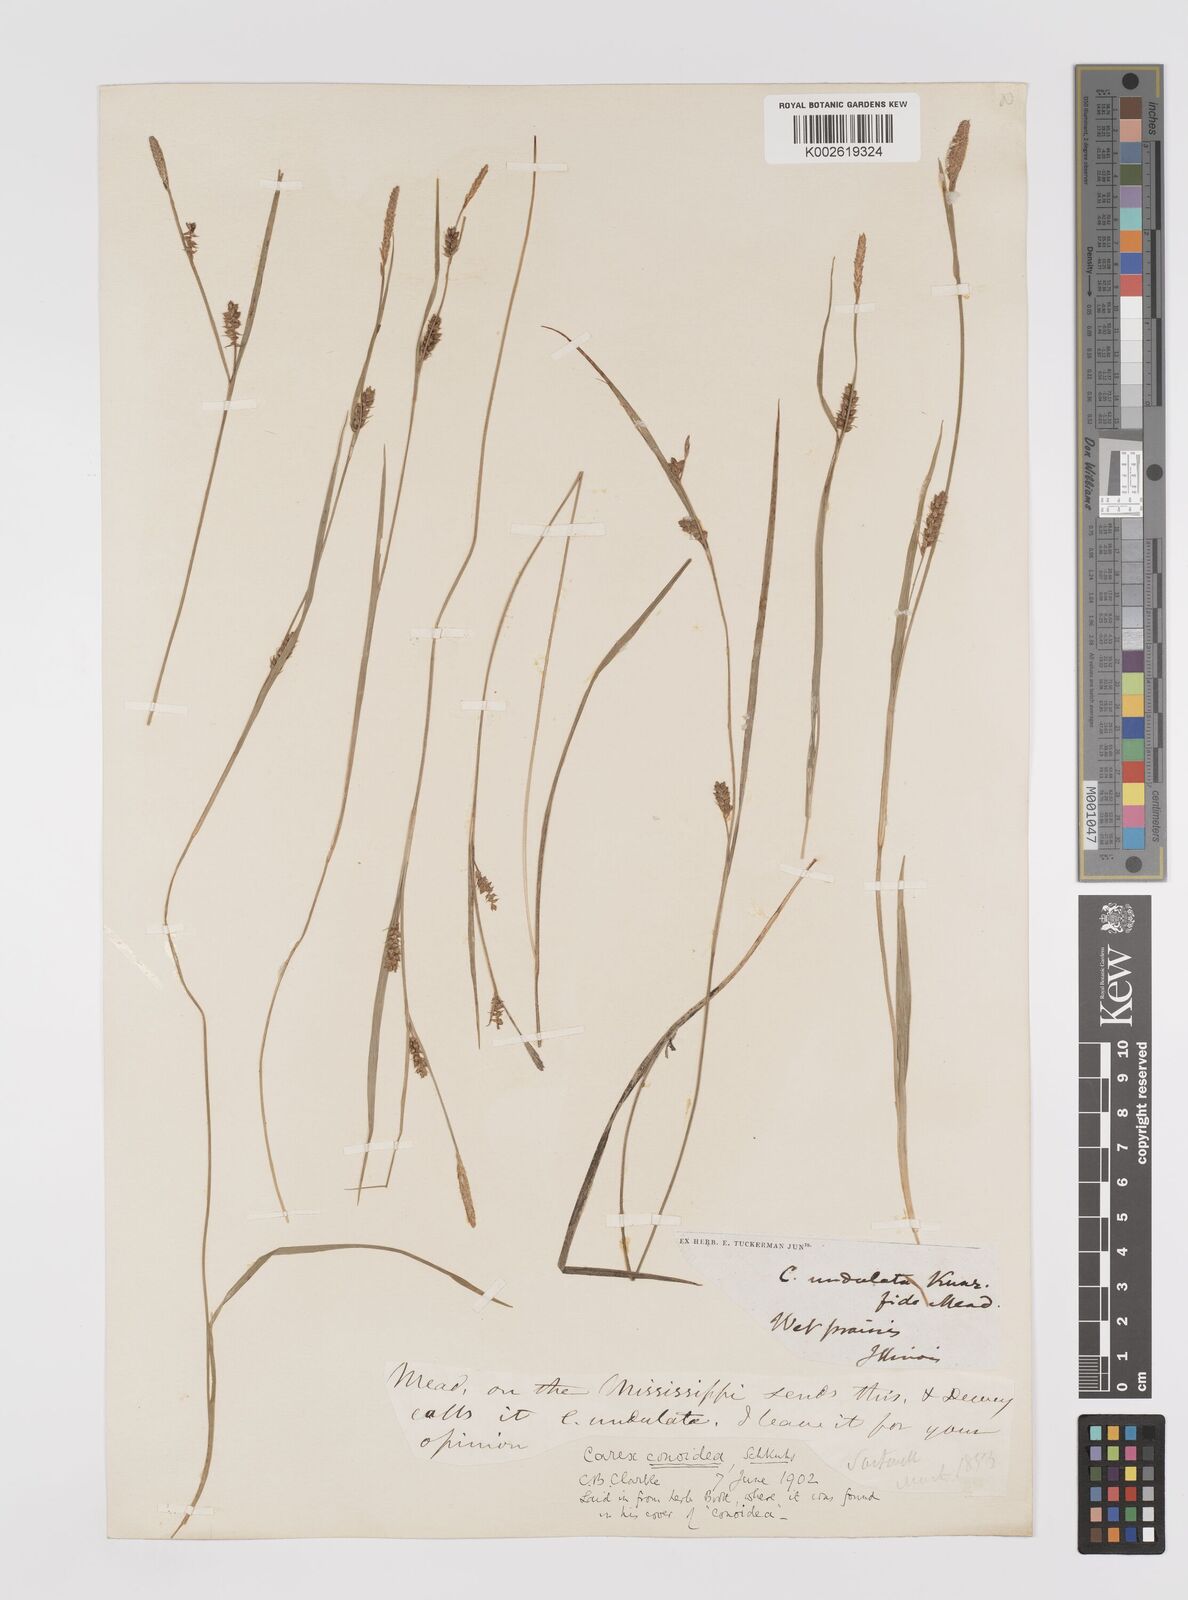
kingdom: Plantae
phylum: Tracheophyta
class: Liliopsida
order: Poales
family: Cyperaceae
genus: Carex
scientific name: Carex conoidea
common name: Cone shaped sedge
